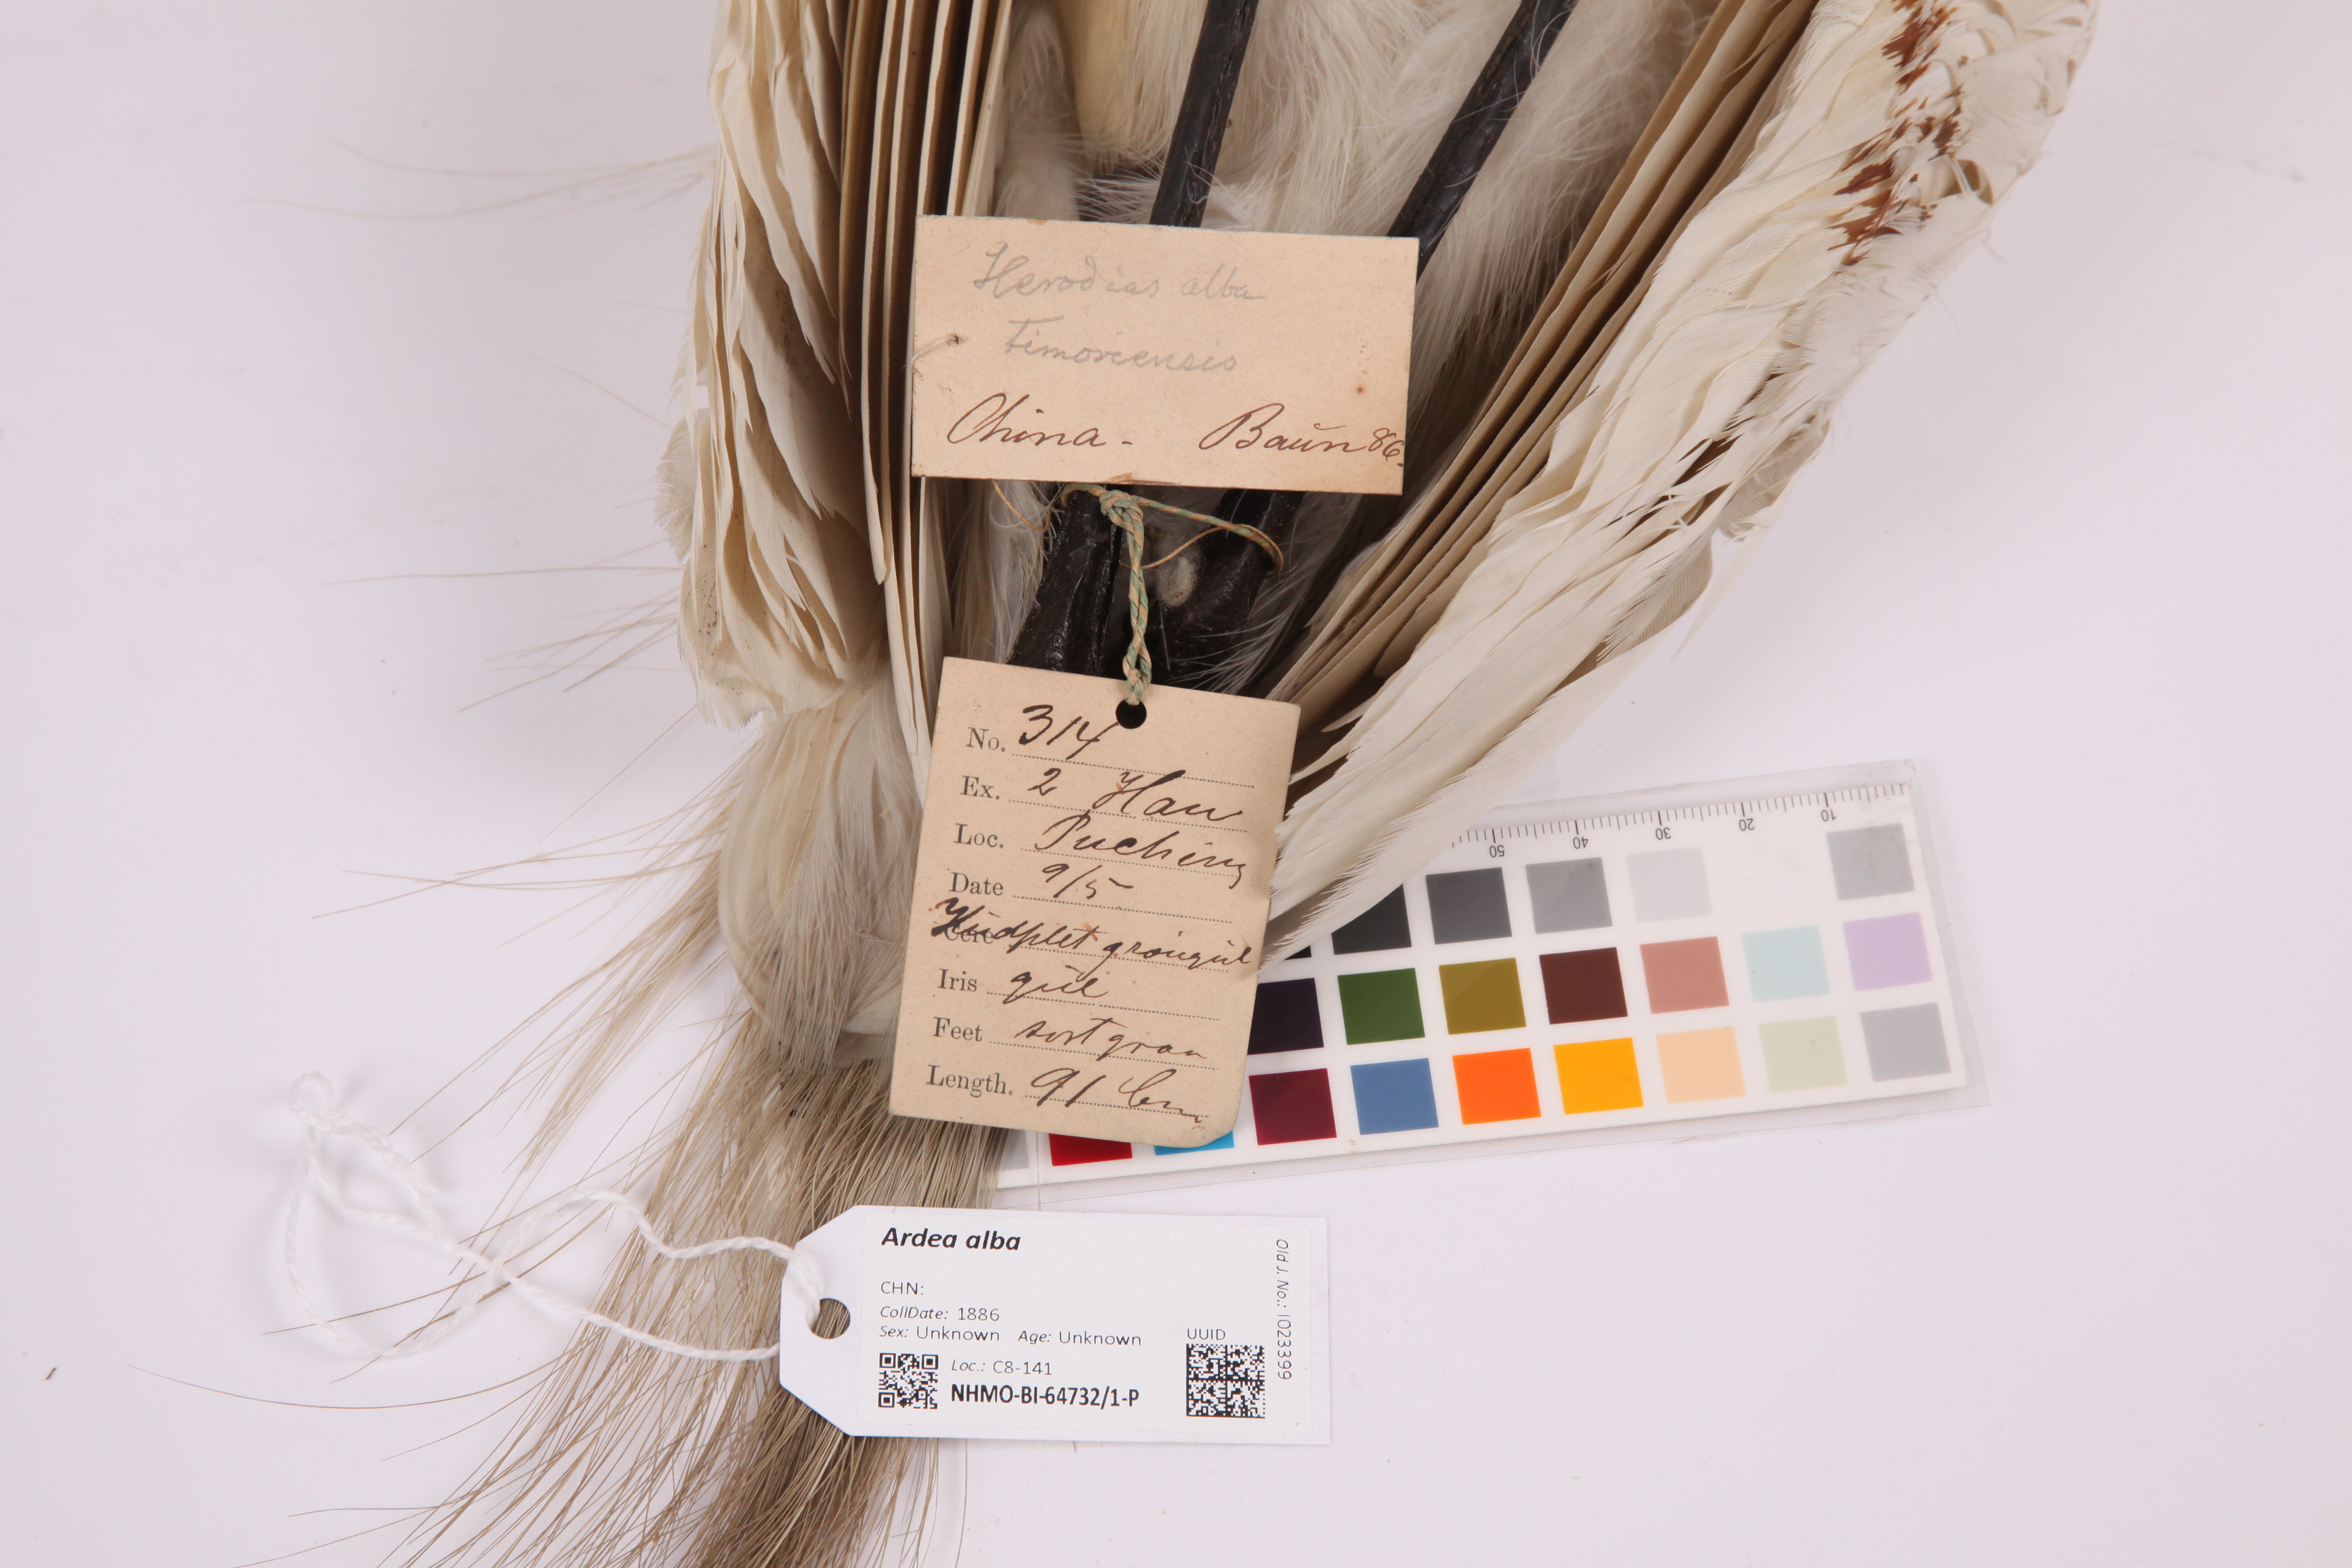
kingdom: Animalia
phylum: Chordata
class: Aves
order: Pelecaniformes
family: Ardeidae
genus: Ardea
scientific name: Ardea alba
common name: Great egret
